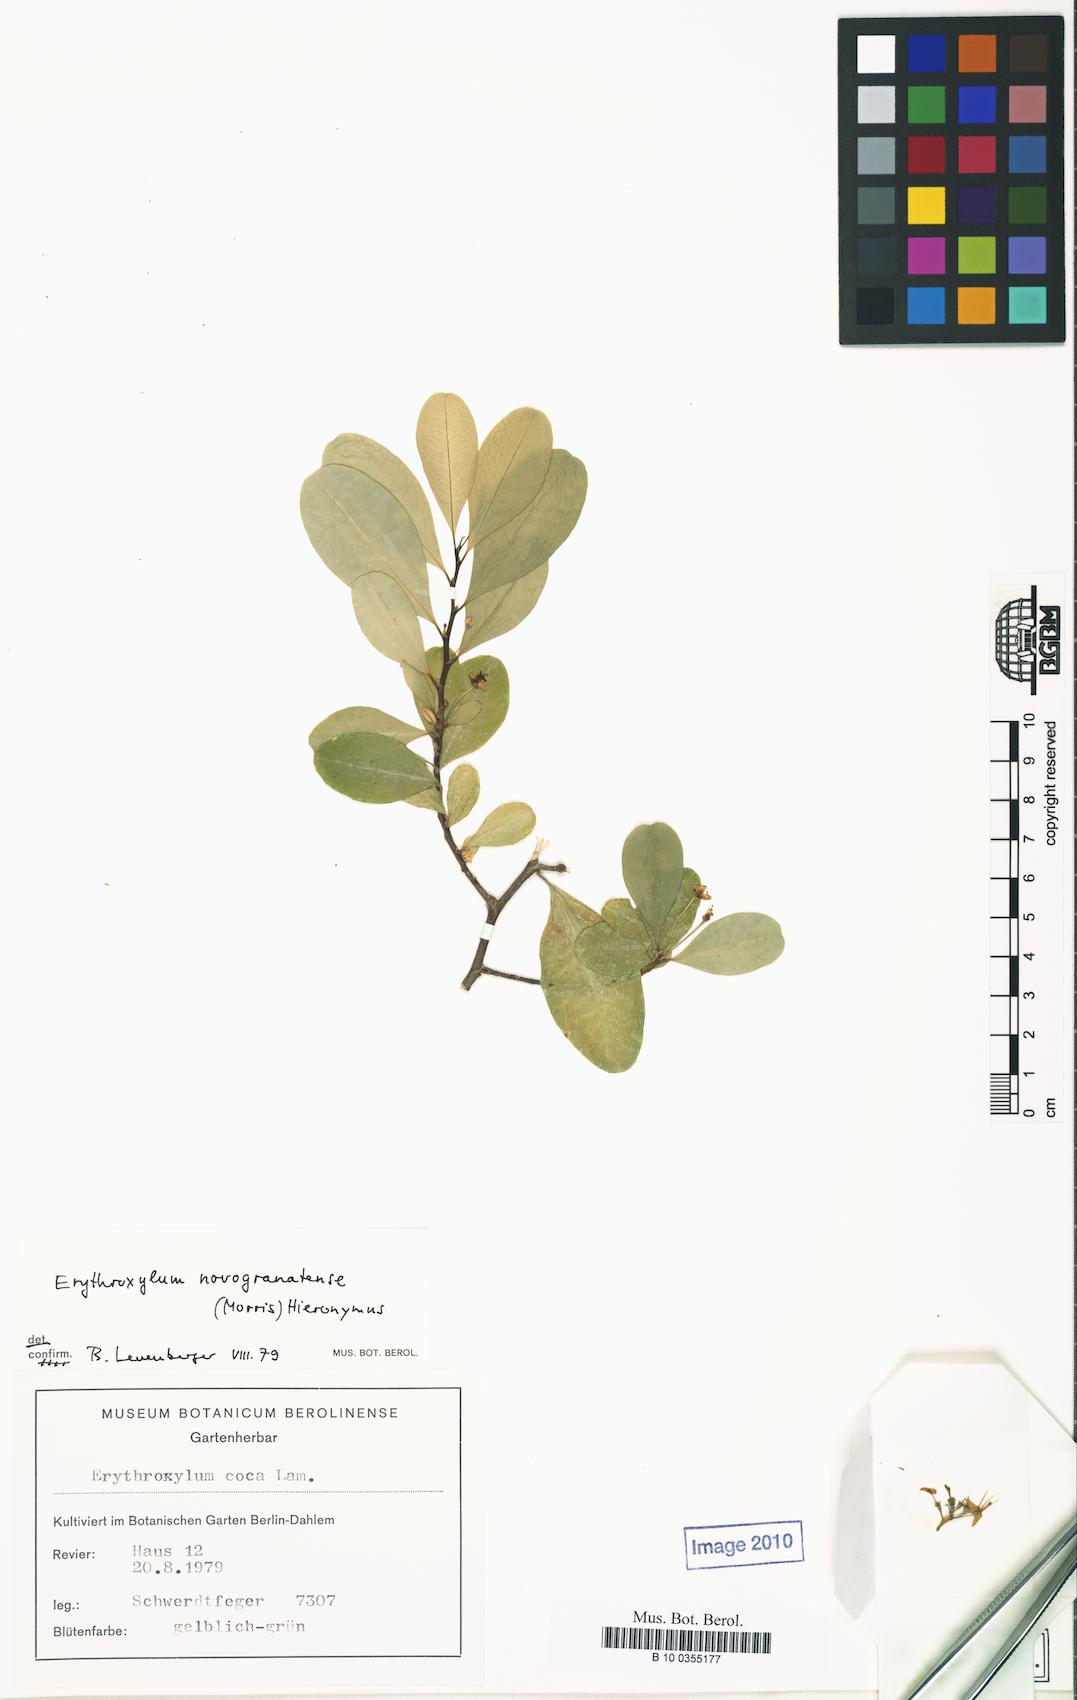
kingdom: Plantae
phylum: Tracheophyta
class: Magnoliopsida
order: Malpighiales
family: Erythroxylaceae
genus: Erythroxylum
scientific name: Erythroxylum novogranatense
